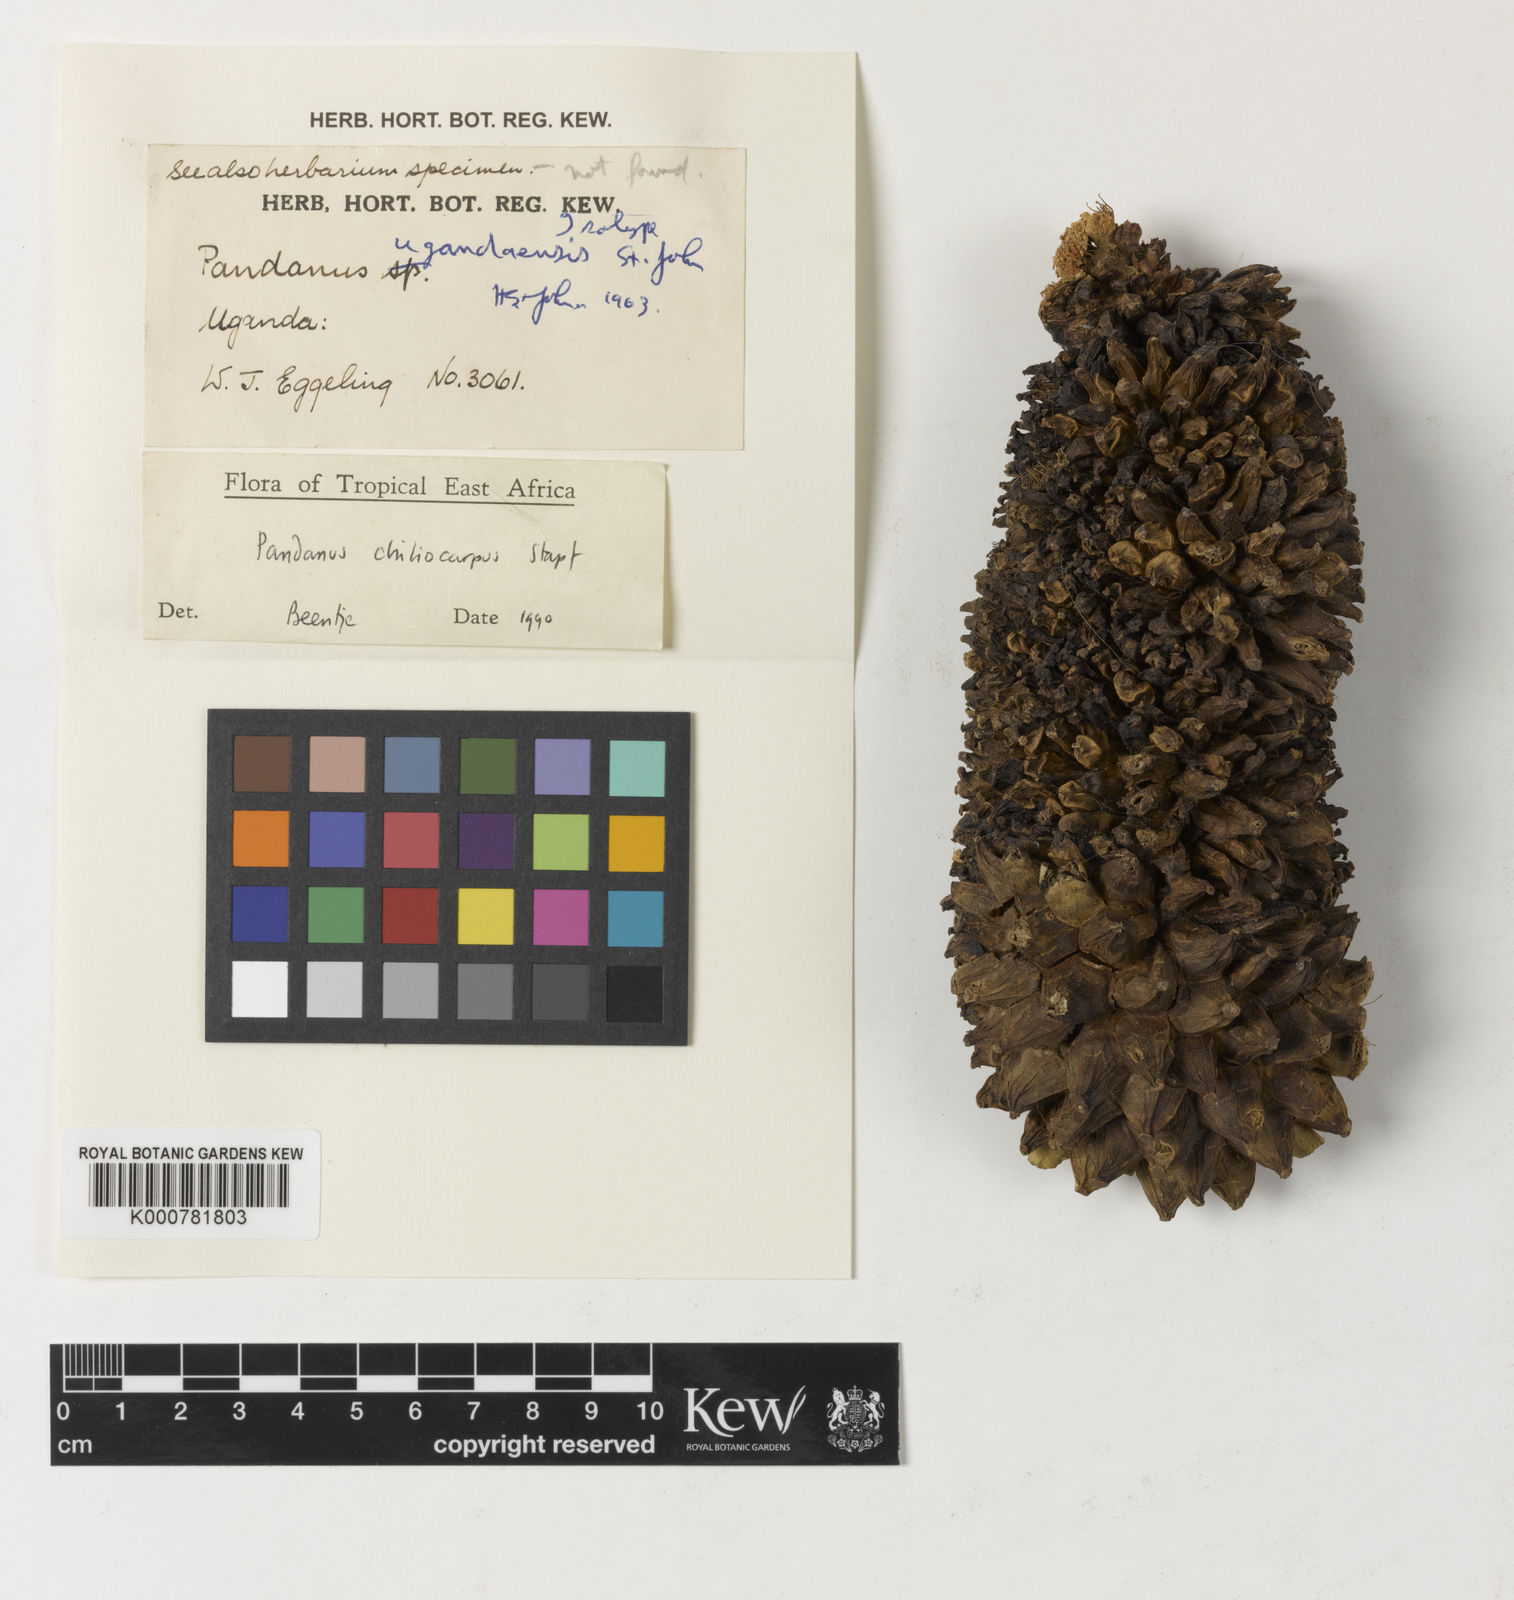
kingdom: Plantae
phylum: Tracheophyta
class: Liliopsida
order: Pandanales
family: Pandanaceae
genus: Pandanus
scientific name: Pandanus chiliocarpus
